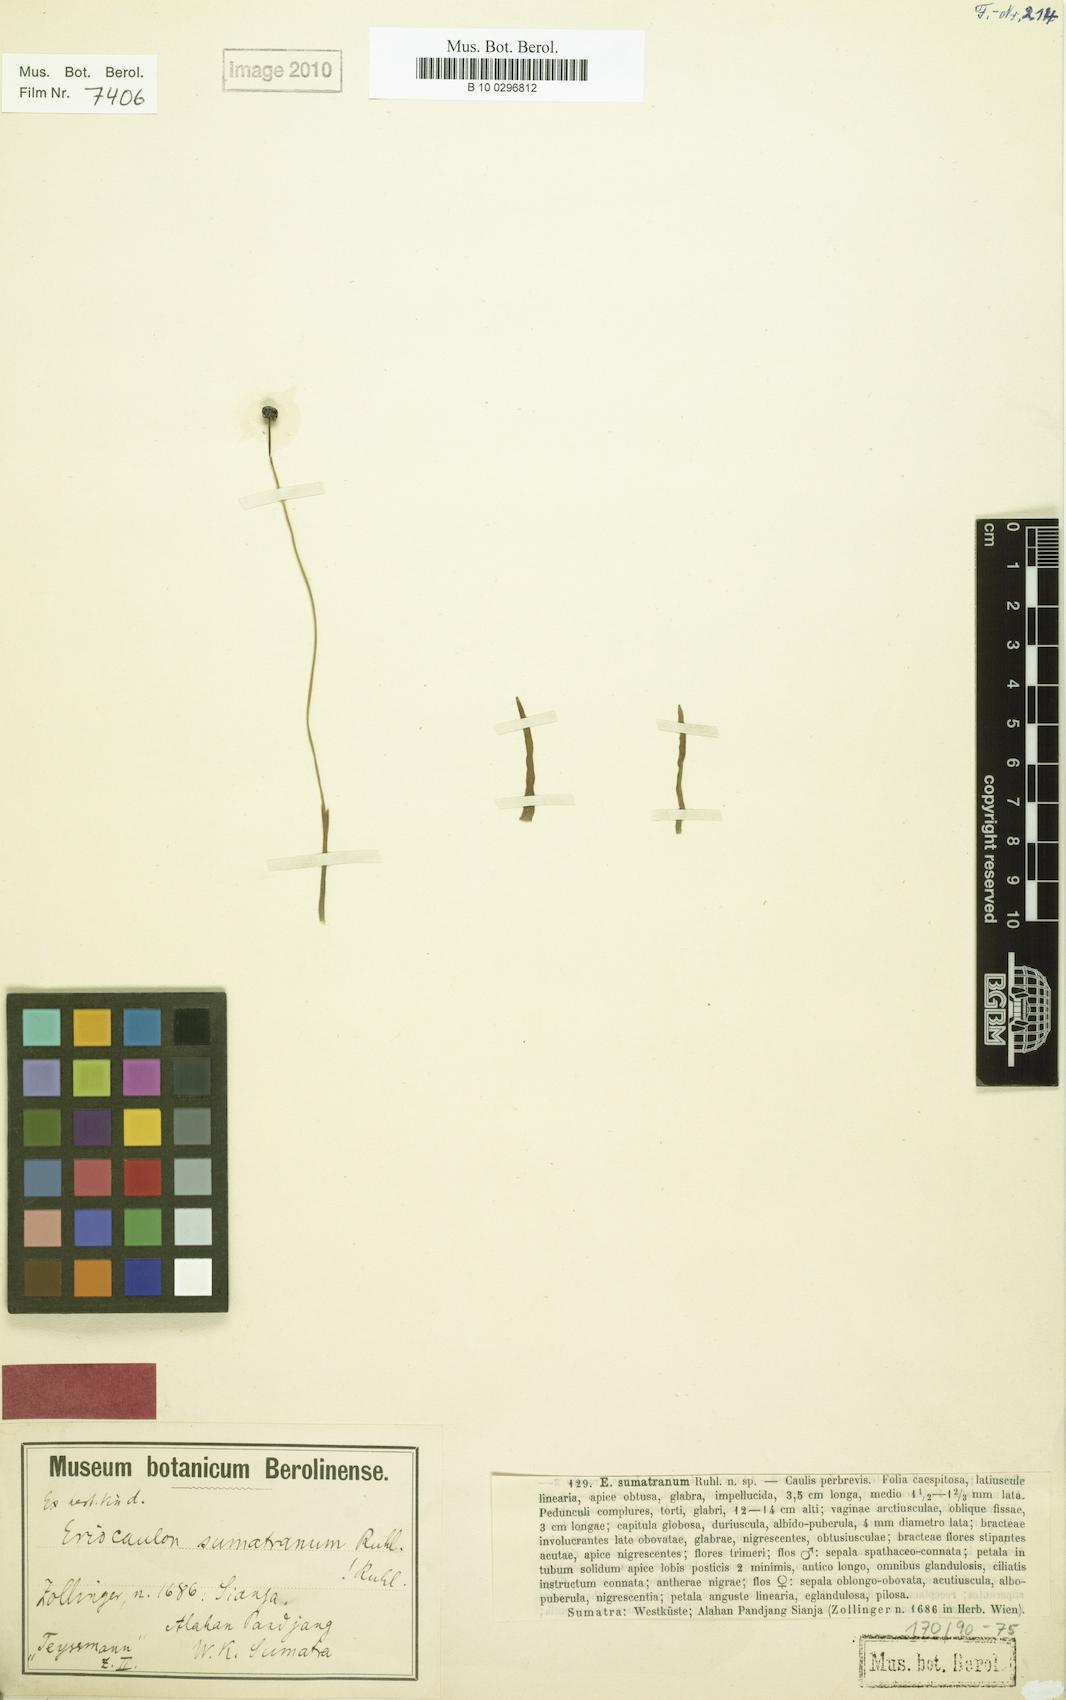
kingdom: Plantae
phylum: Tracheophyta
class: Liliopsida
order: Poales
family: Eriocaulaceae
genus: Eriocaulon
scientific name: Eriocaulon sumatranum
